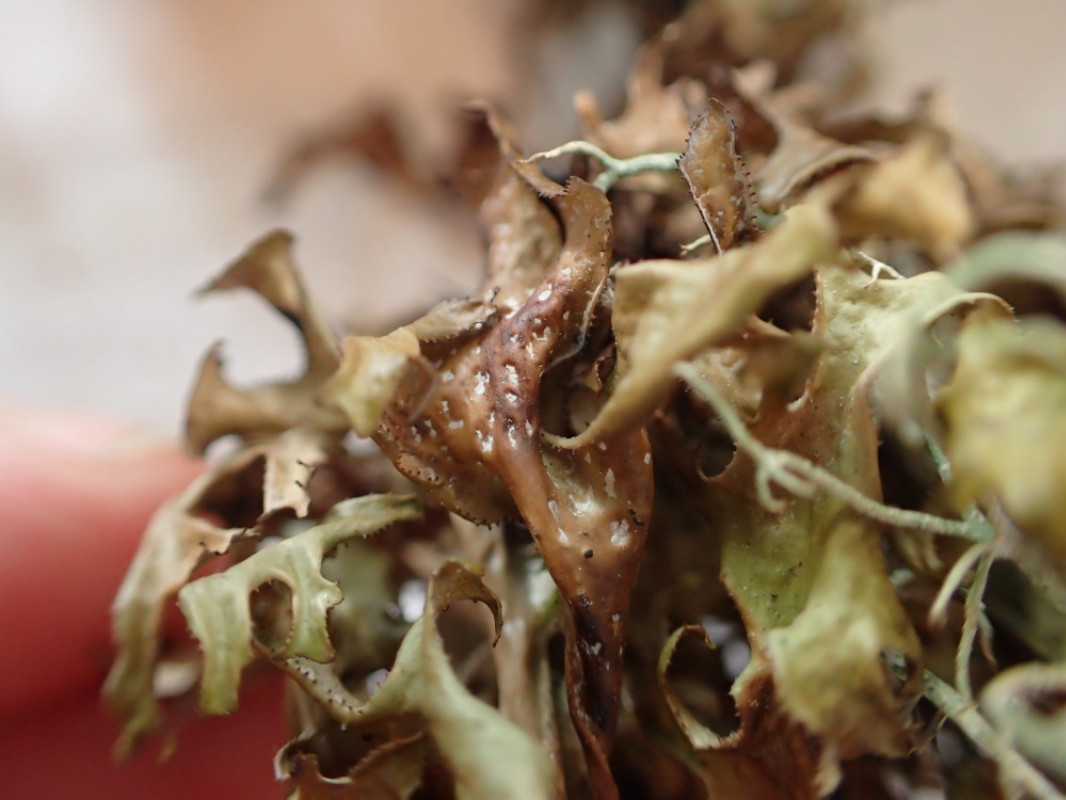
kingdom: Fungi
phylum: Ascomycota
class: Lecanoromycetes
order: Lecanorales
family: Parmeliaceae
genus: Cetraria
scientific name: Cetraria islandica
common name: islandsk kruslav
